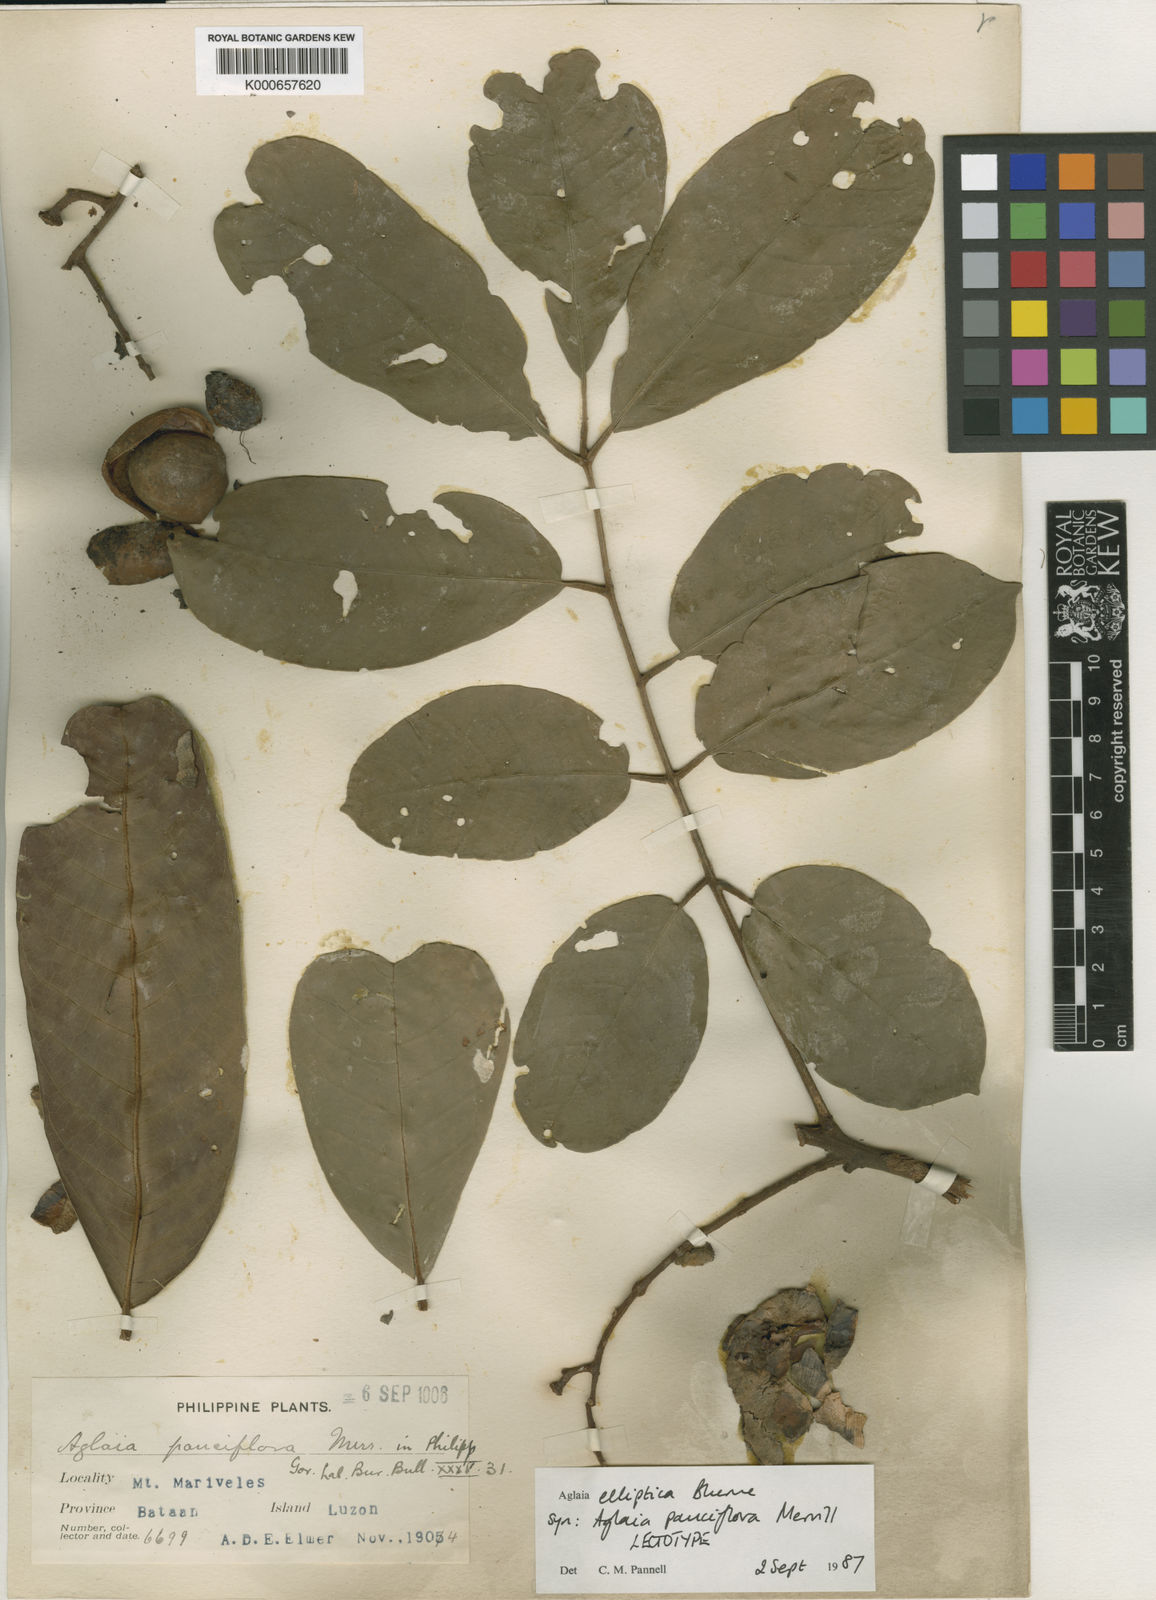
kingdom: Plantae
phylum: Tracheophyta
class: Magnoliopsida
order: Sapindales
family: Meliaceae
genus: Aglaia
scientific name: Aglaia elliptica
